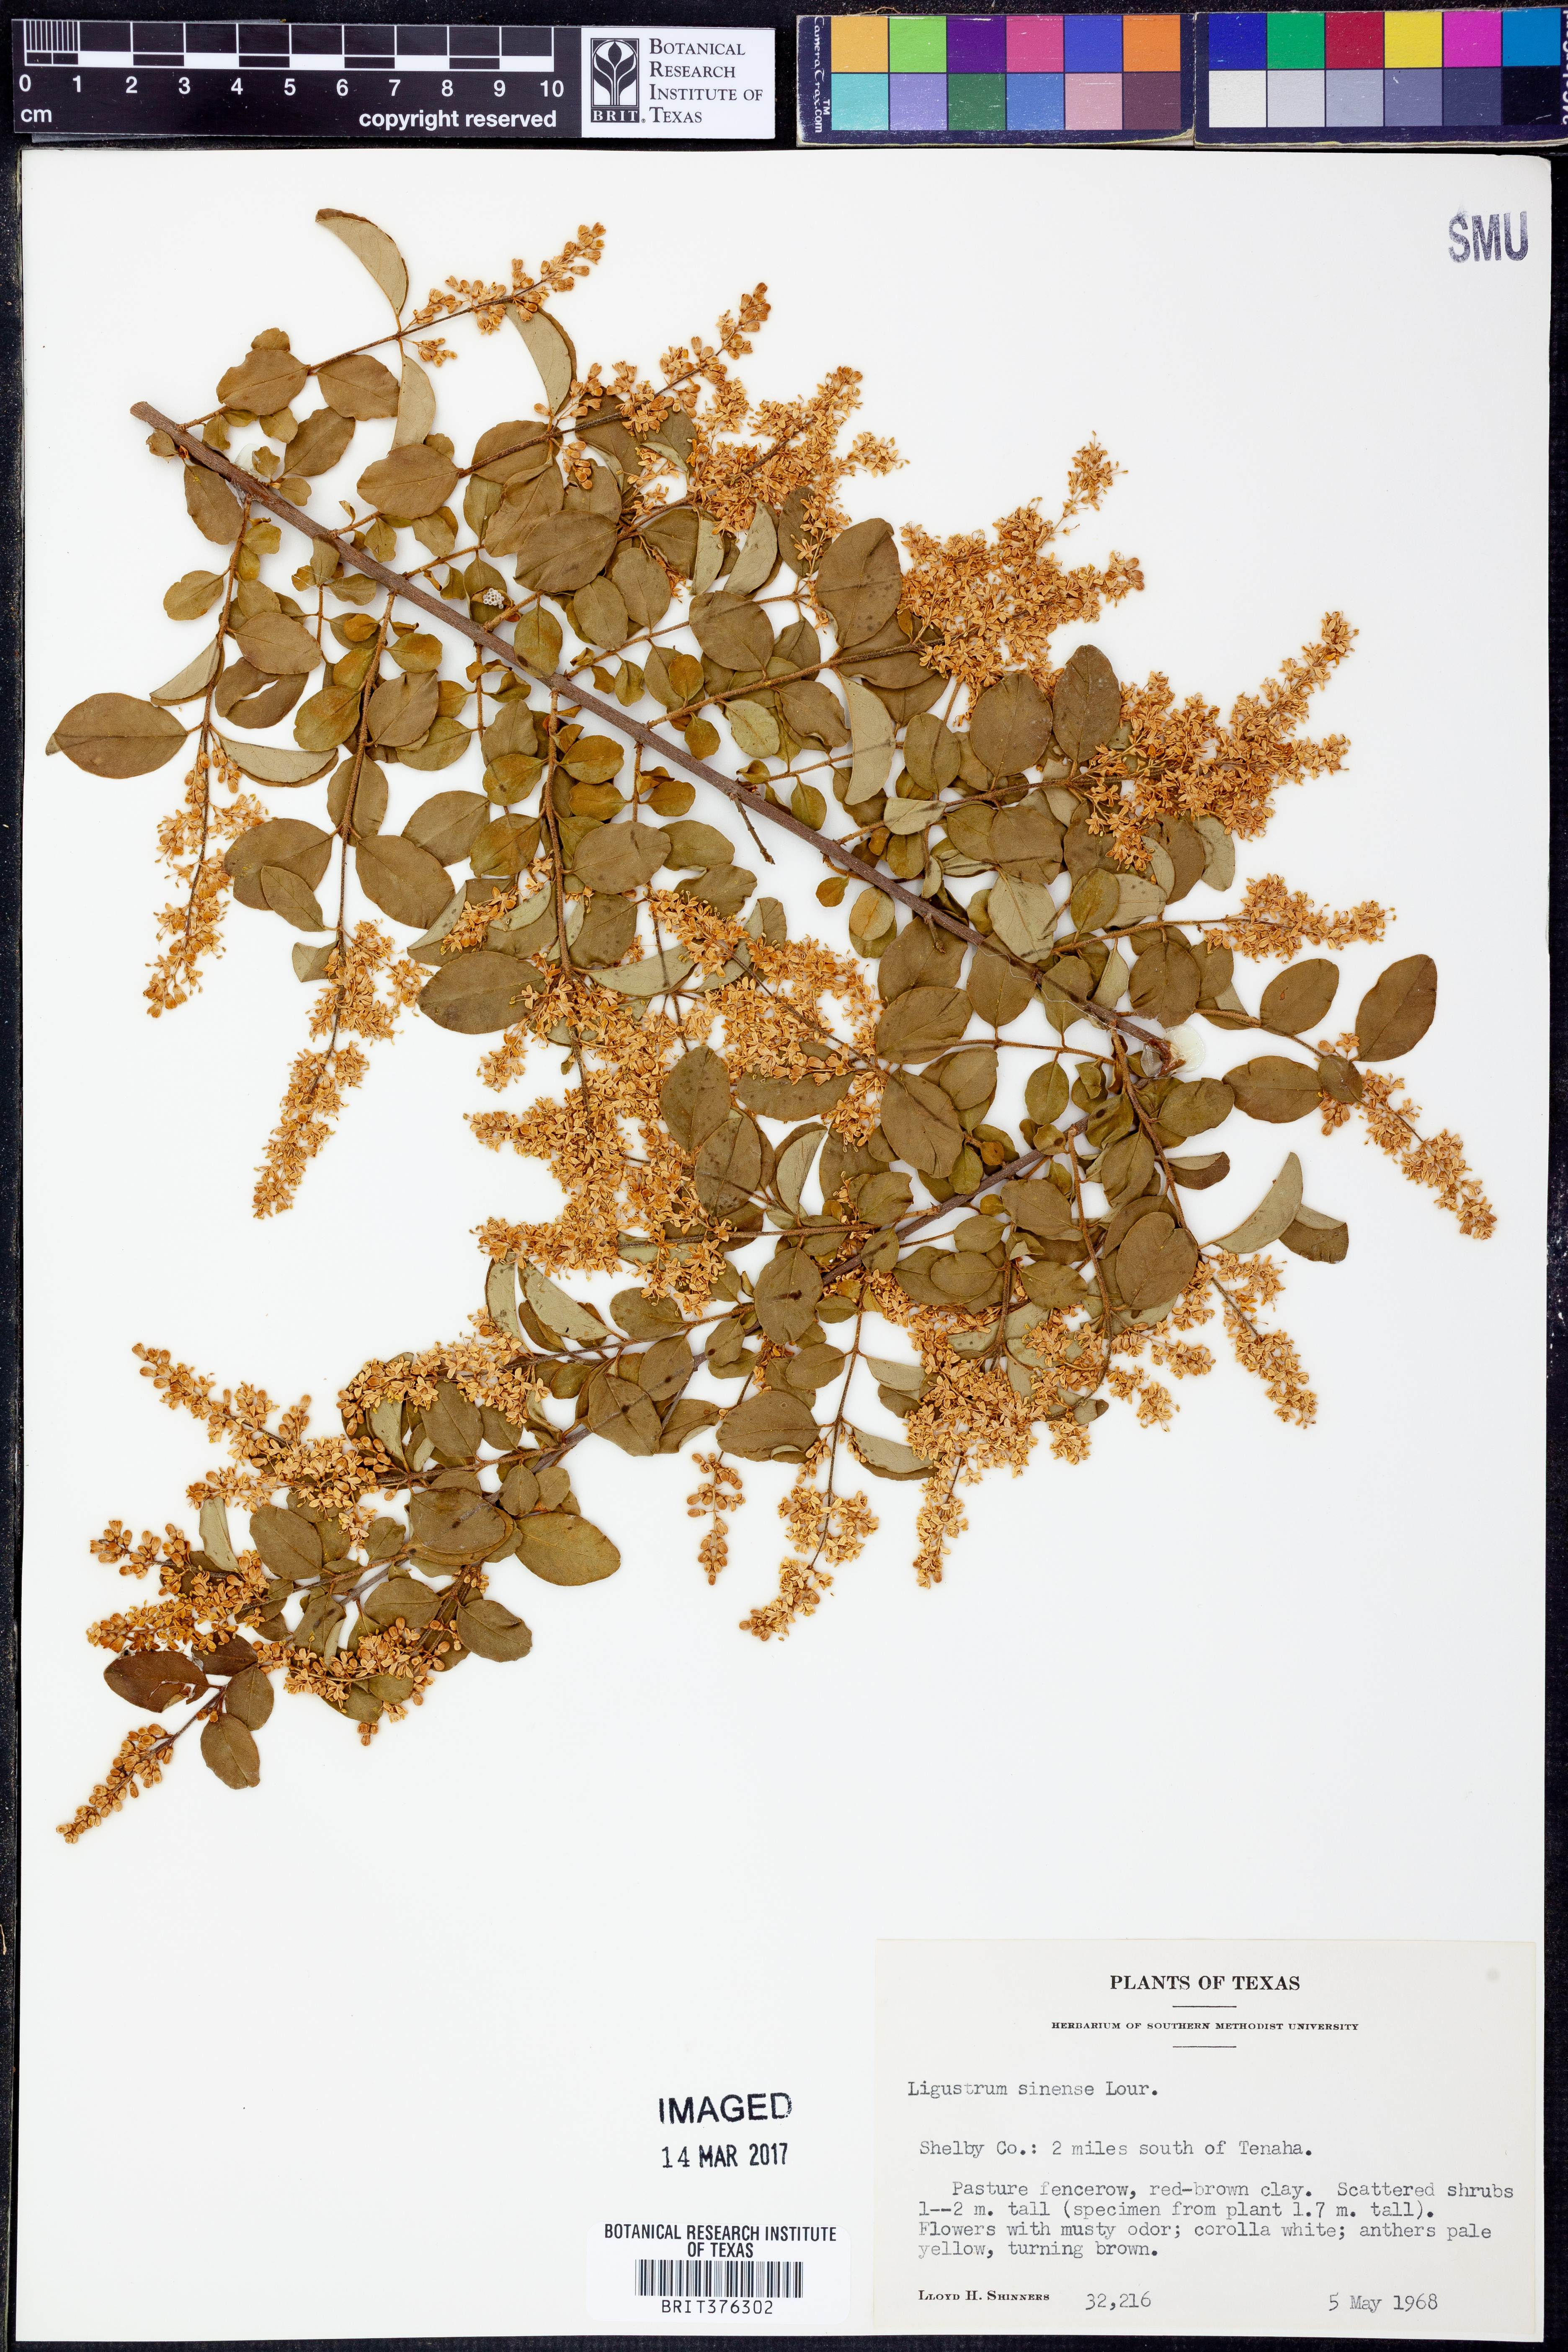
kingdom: Plantae
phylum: Tracheophyta
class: Magnoliopsida
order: Lamiales
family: Oleaceae
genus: Ligustrum
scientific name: Ligustrum sinense
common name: Chinese privet
